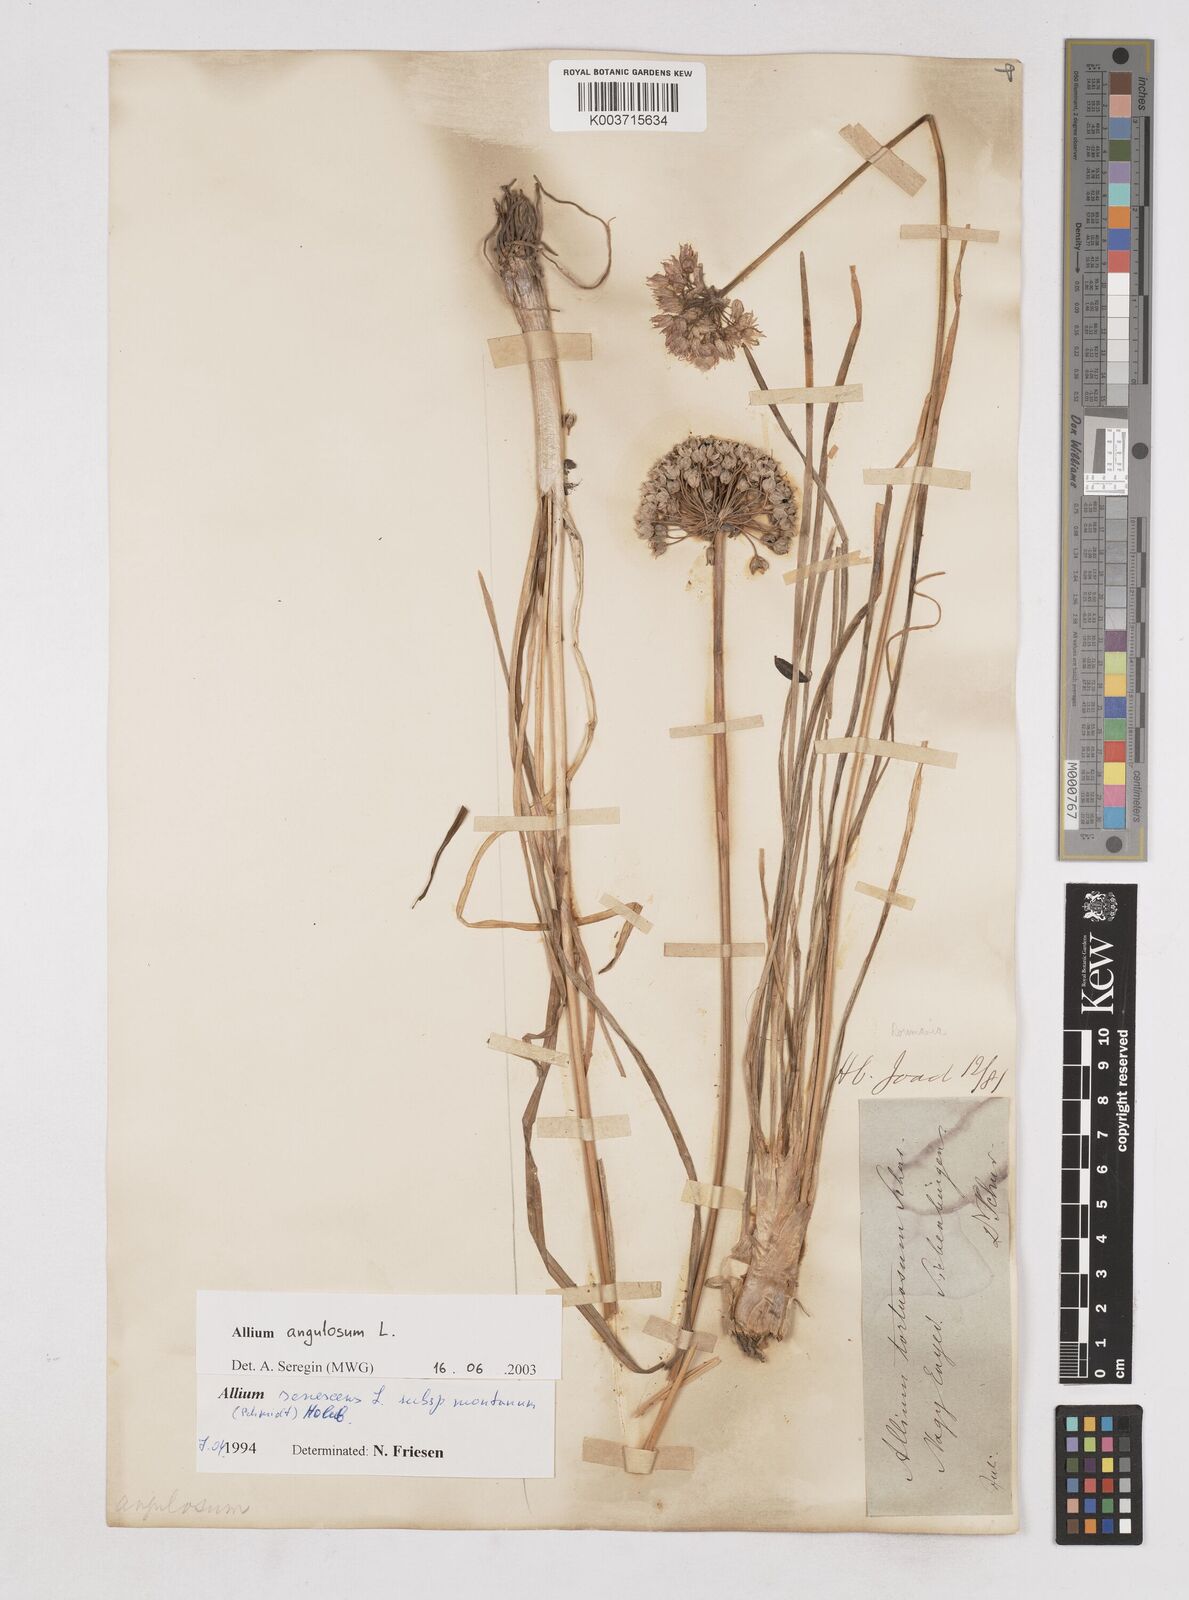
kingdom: Plantae
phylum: Tracheophyta
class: Liliopsida
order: Asparagales
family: Amaryllidaceae
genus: Allium
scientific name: Allium angulosum
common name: Mouse garlic
